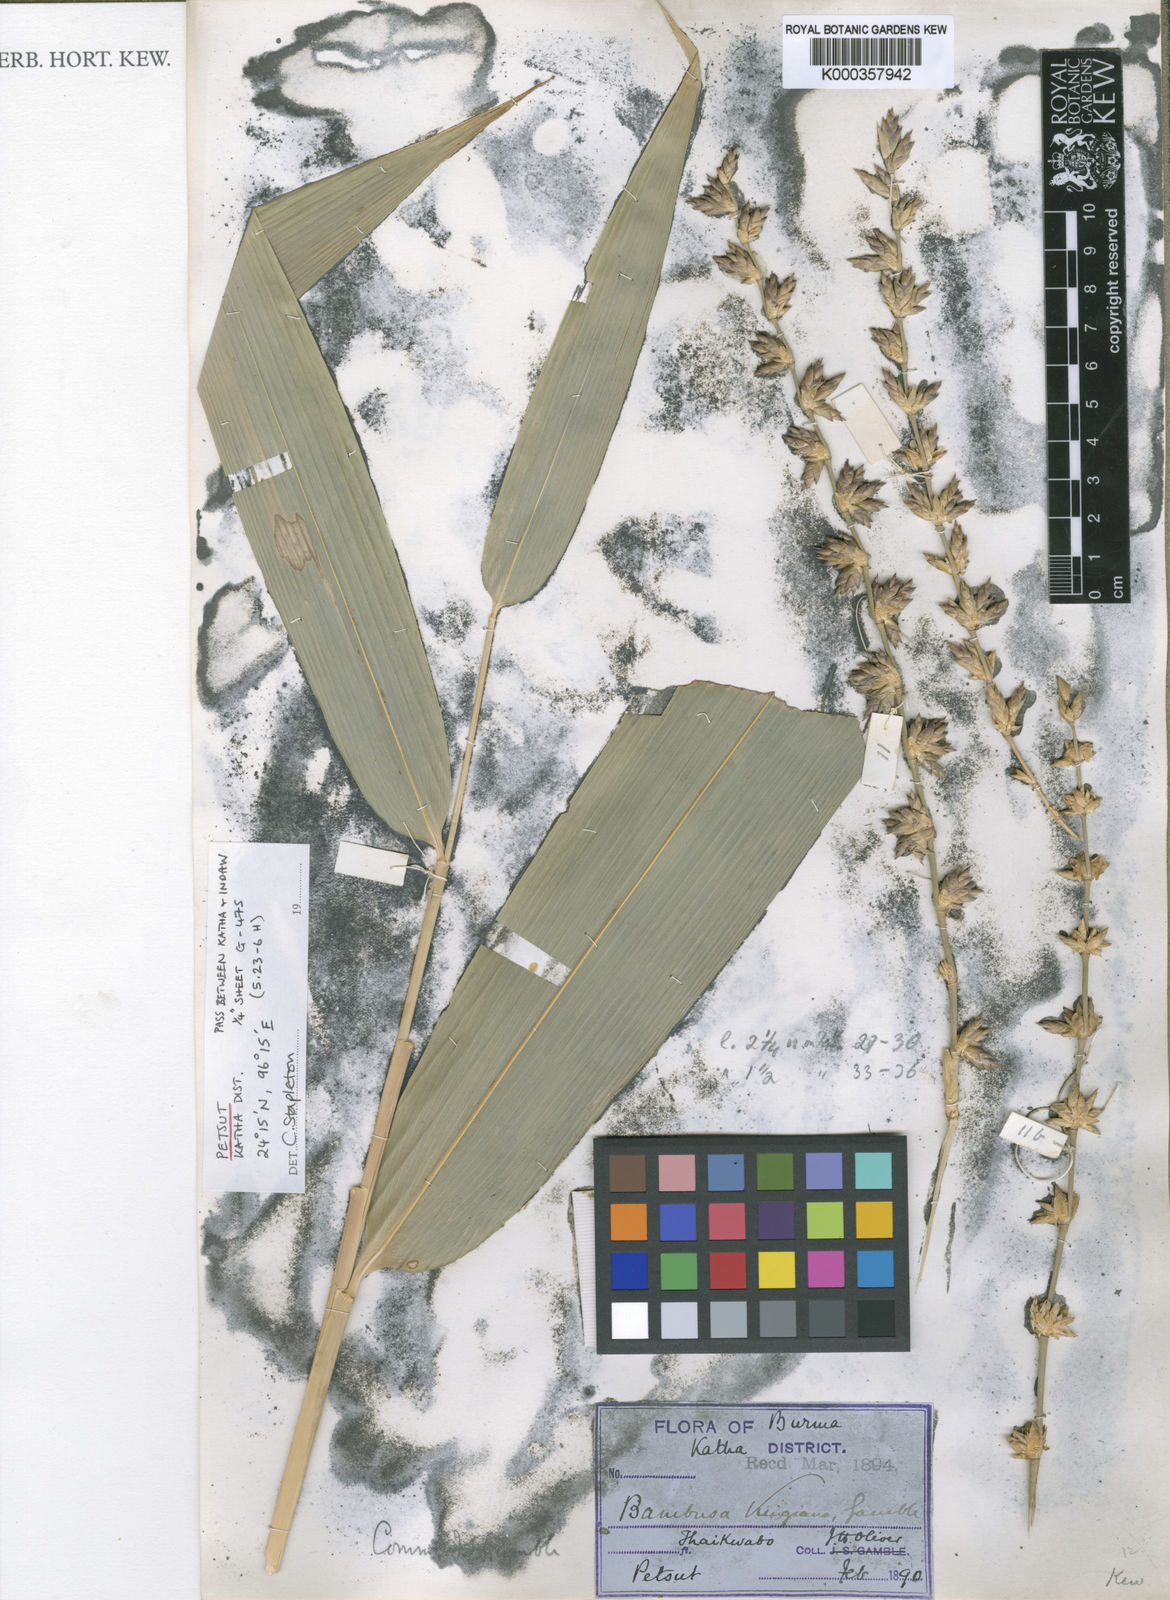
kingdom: Plantae
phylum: Tracheophyta
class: Liliopsida
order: Poales
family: Poaceae
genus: Bambusa
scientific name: Bambusa kingiana
